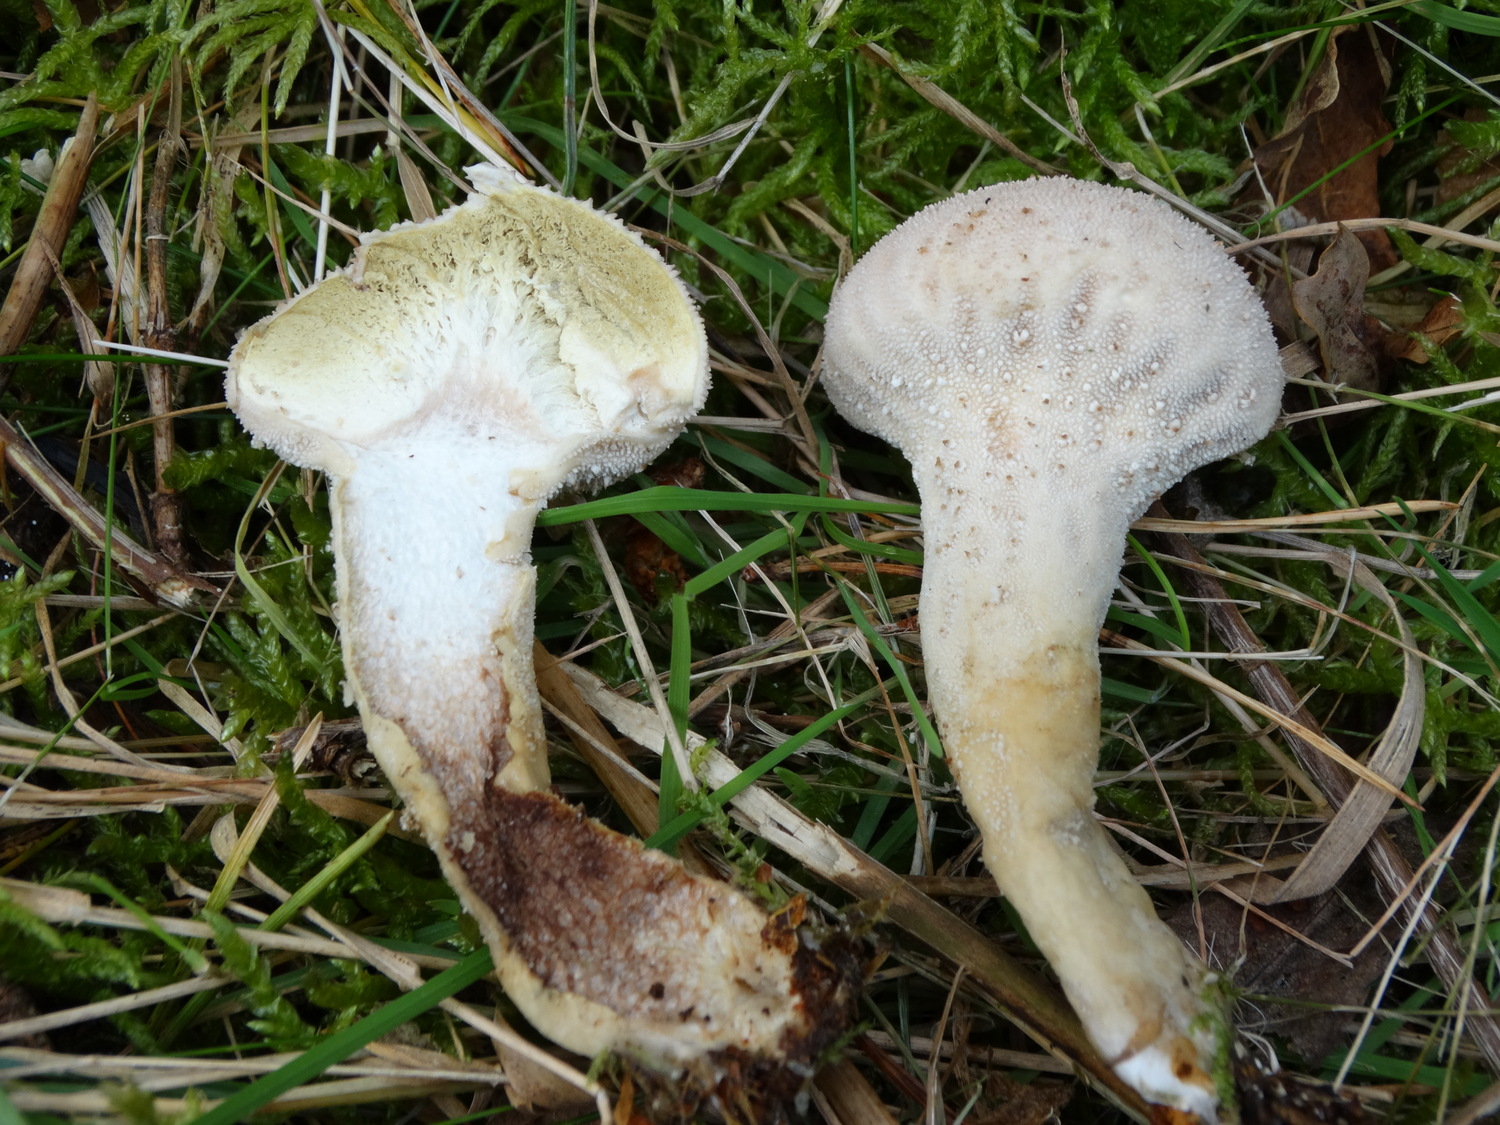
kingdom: Fungi
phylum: Basidiomycota
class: Agaricomycetes
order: Agaricales
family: Lycoperdaceae
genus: Lycoperdon
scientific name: Lycoperdon excipuliforme
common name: højstokket støvbold
